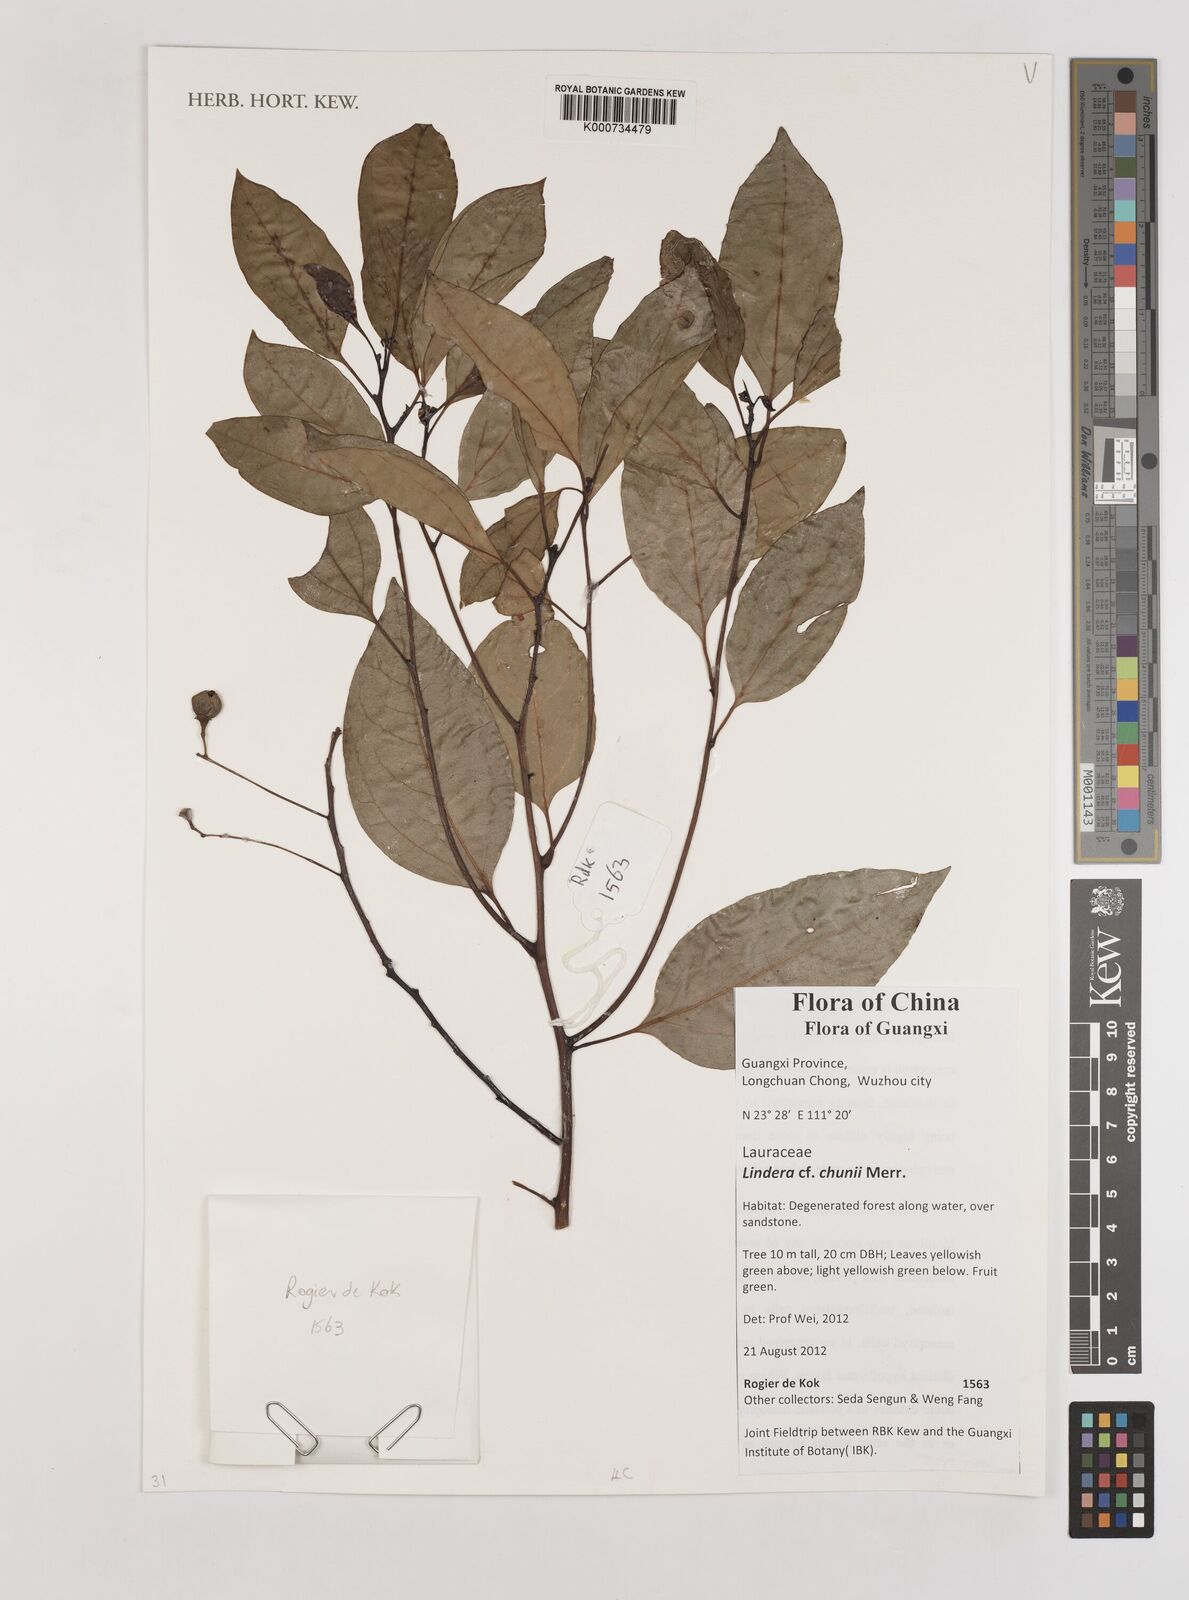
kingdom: Plantae
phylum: Tracheophyta
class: Magnoliopsida
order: Laurales
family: Lauraceae
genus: Lindera
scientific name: Lindera chunii
